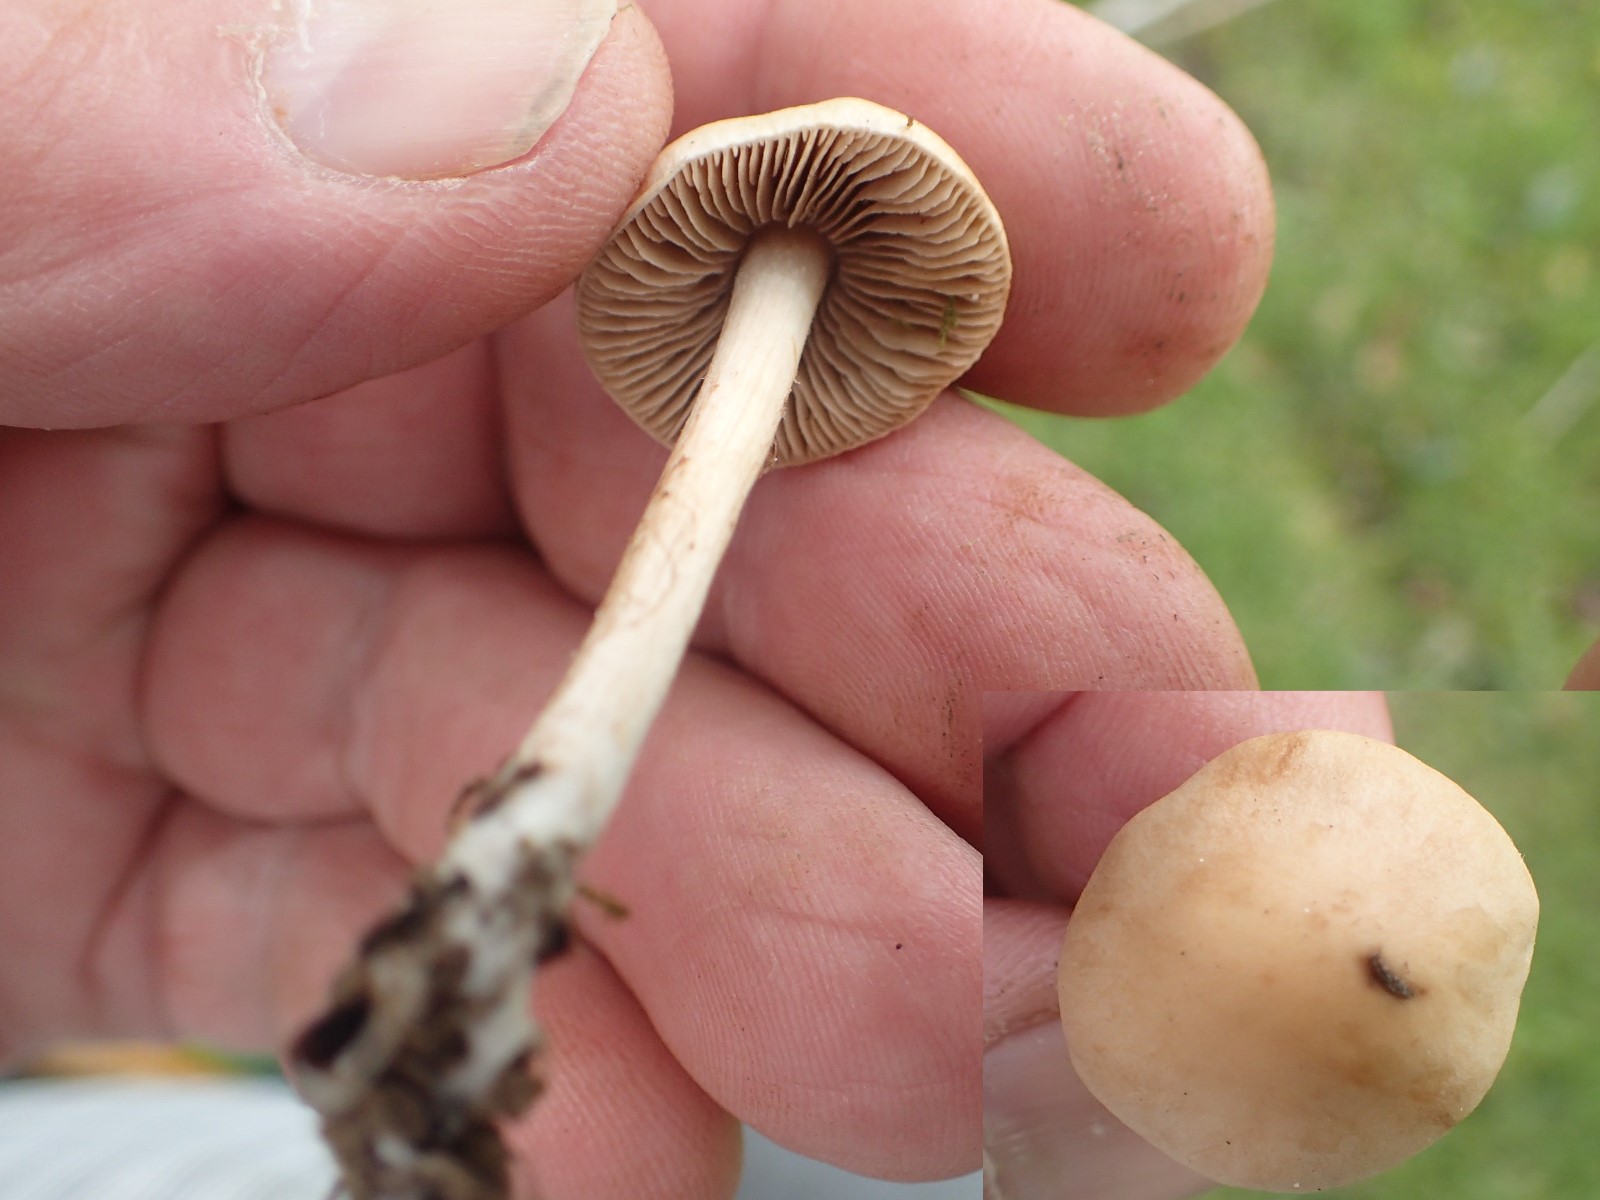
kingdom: Fungi
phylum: Basidiomycota
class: Agaricomycetes
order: Agaricales
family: Hymenogastraceae
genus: Hebeloma
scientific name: Hebeloma
